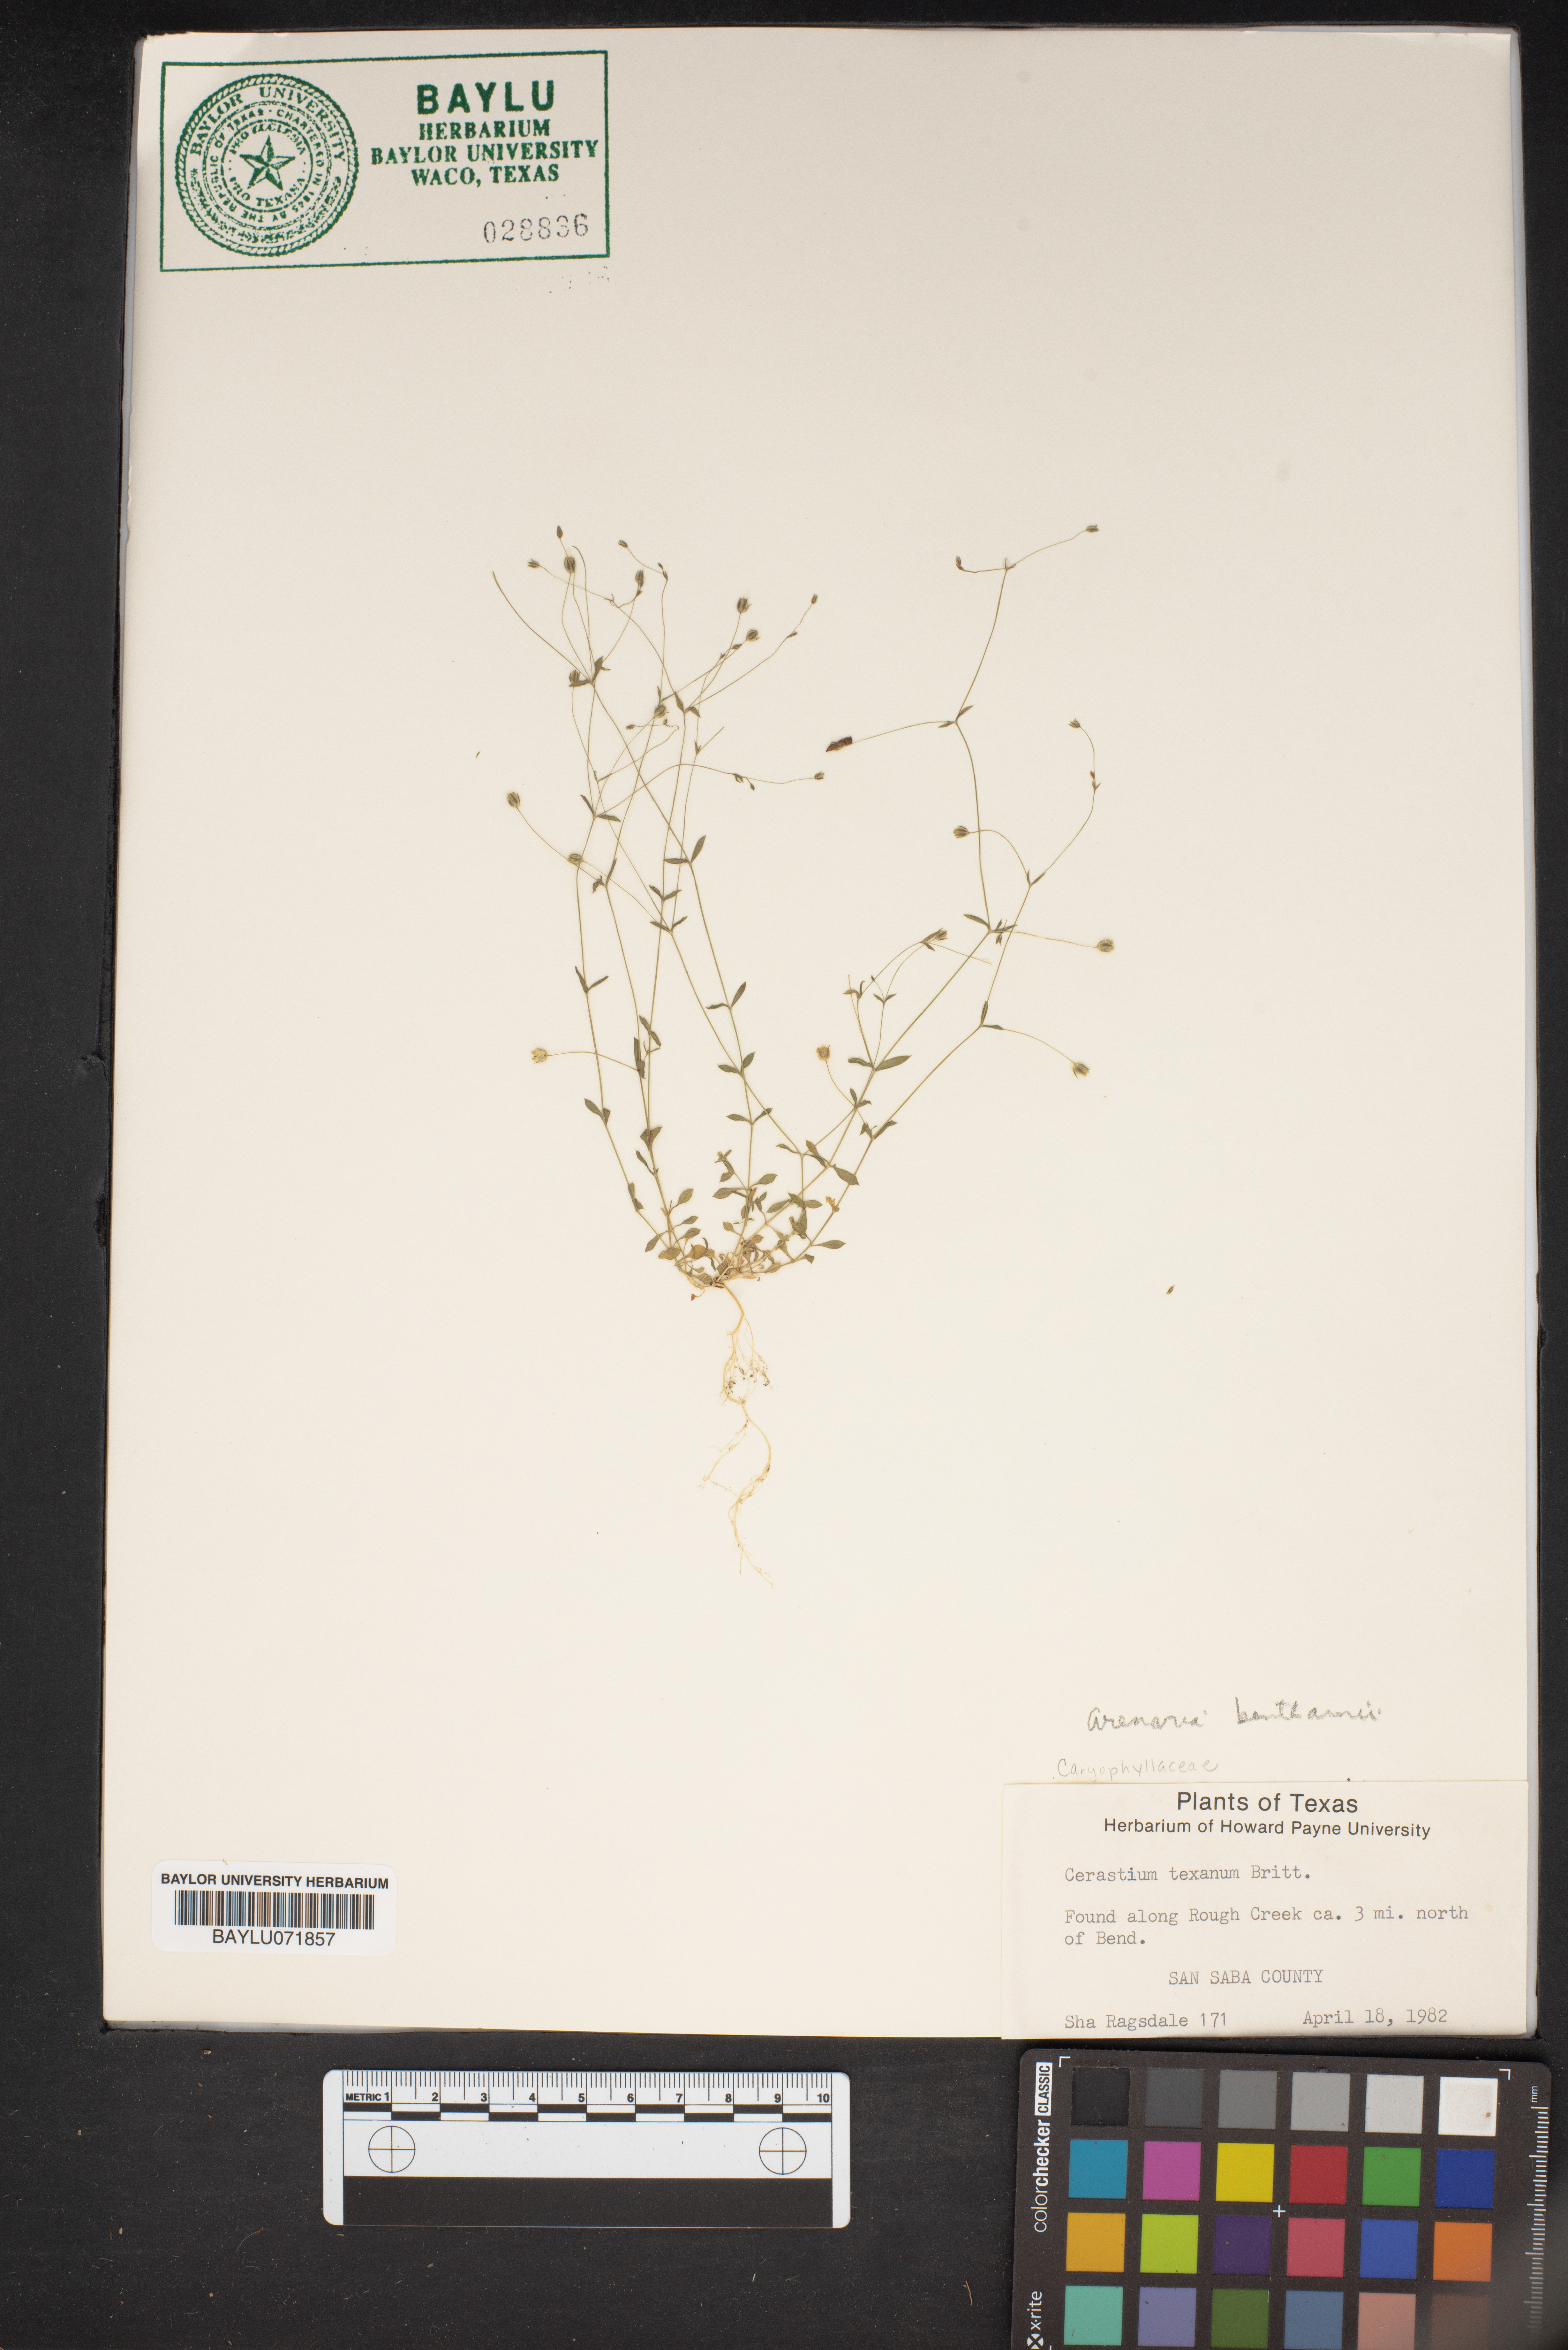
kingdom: Plantae
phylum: Tracheophyta
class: Magnoliopsida
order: Caryophyllales
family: Caryophyllaceae
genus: Cerastium
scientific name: Cerastium texanum
